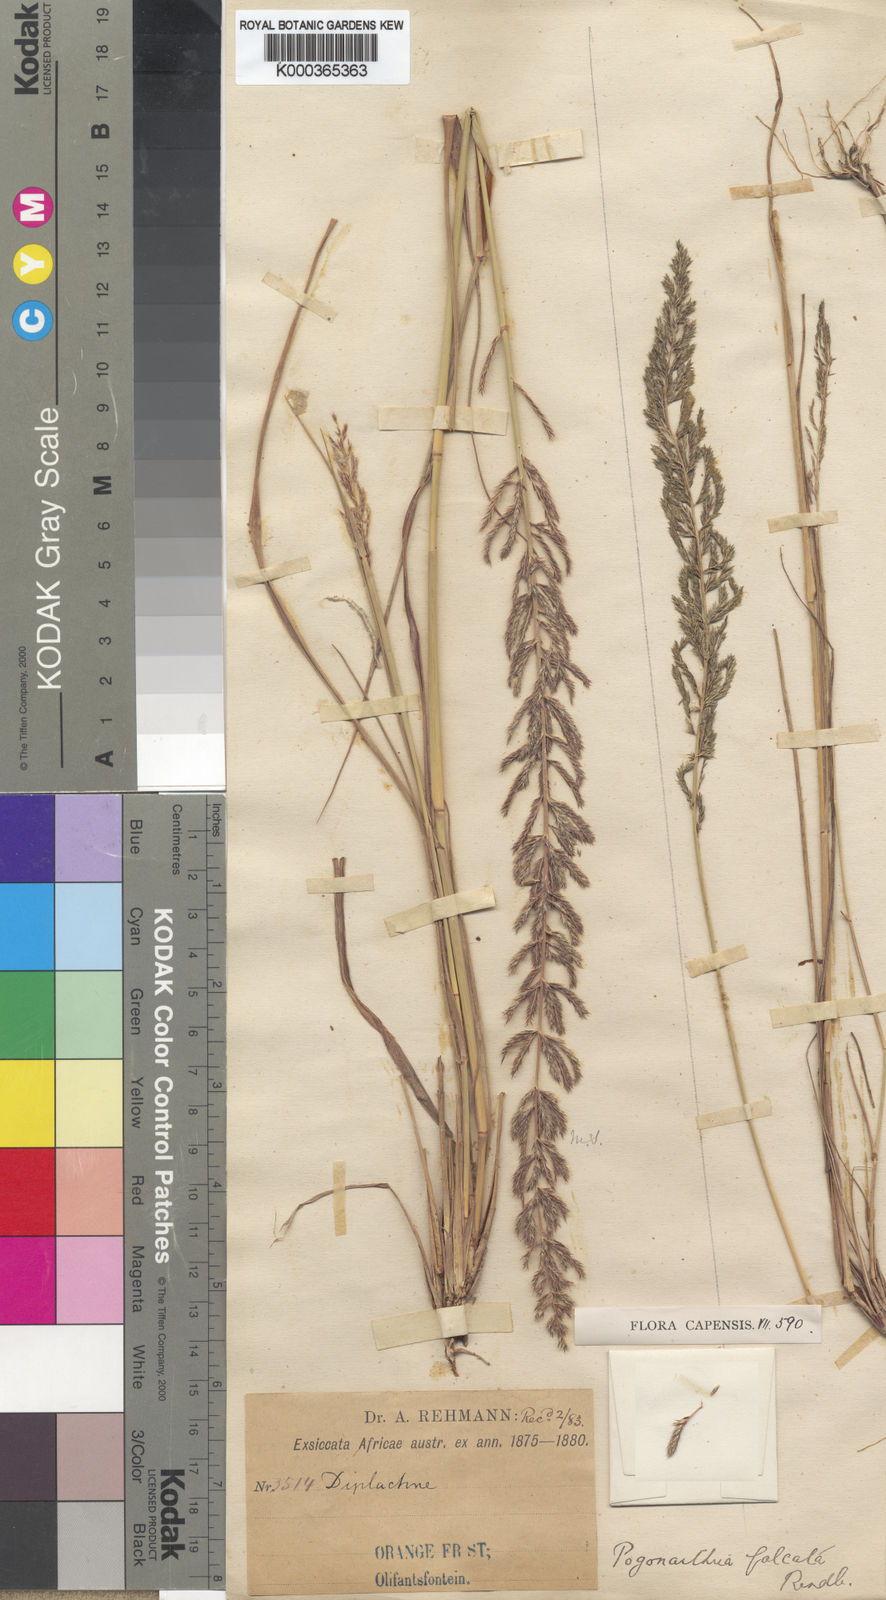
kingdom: Plantae
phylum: Tracheophyta
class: Liliopsida
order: Poales
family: Poaceae
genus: Pogonarthria
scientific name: Pogonarthria squarrosa
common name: Grass
